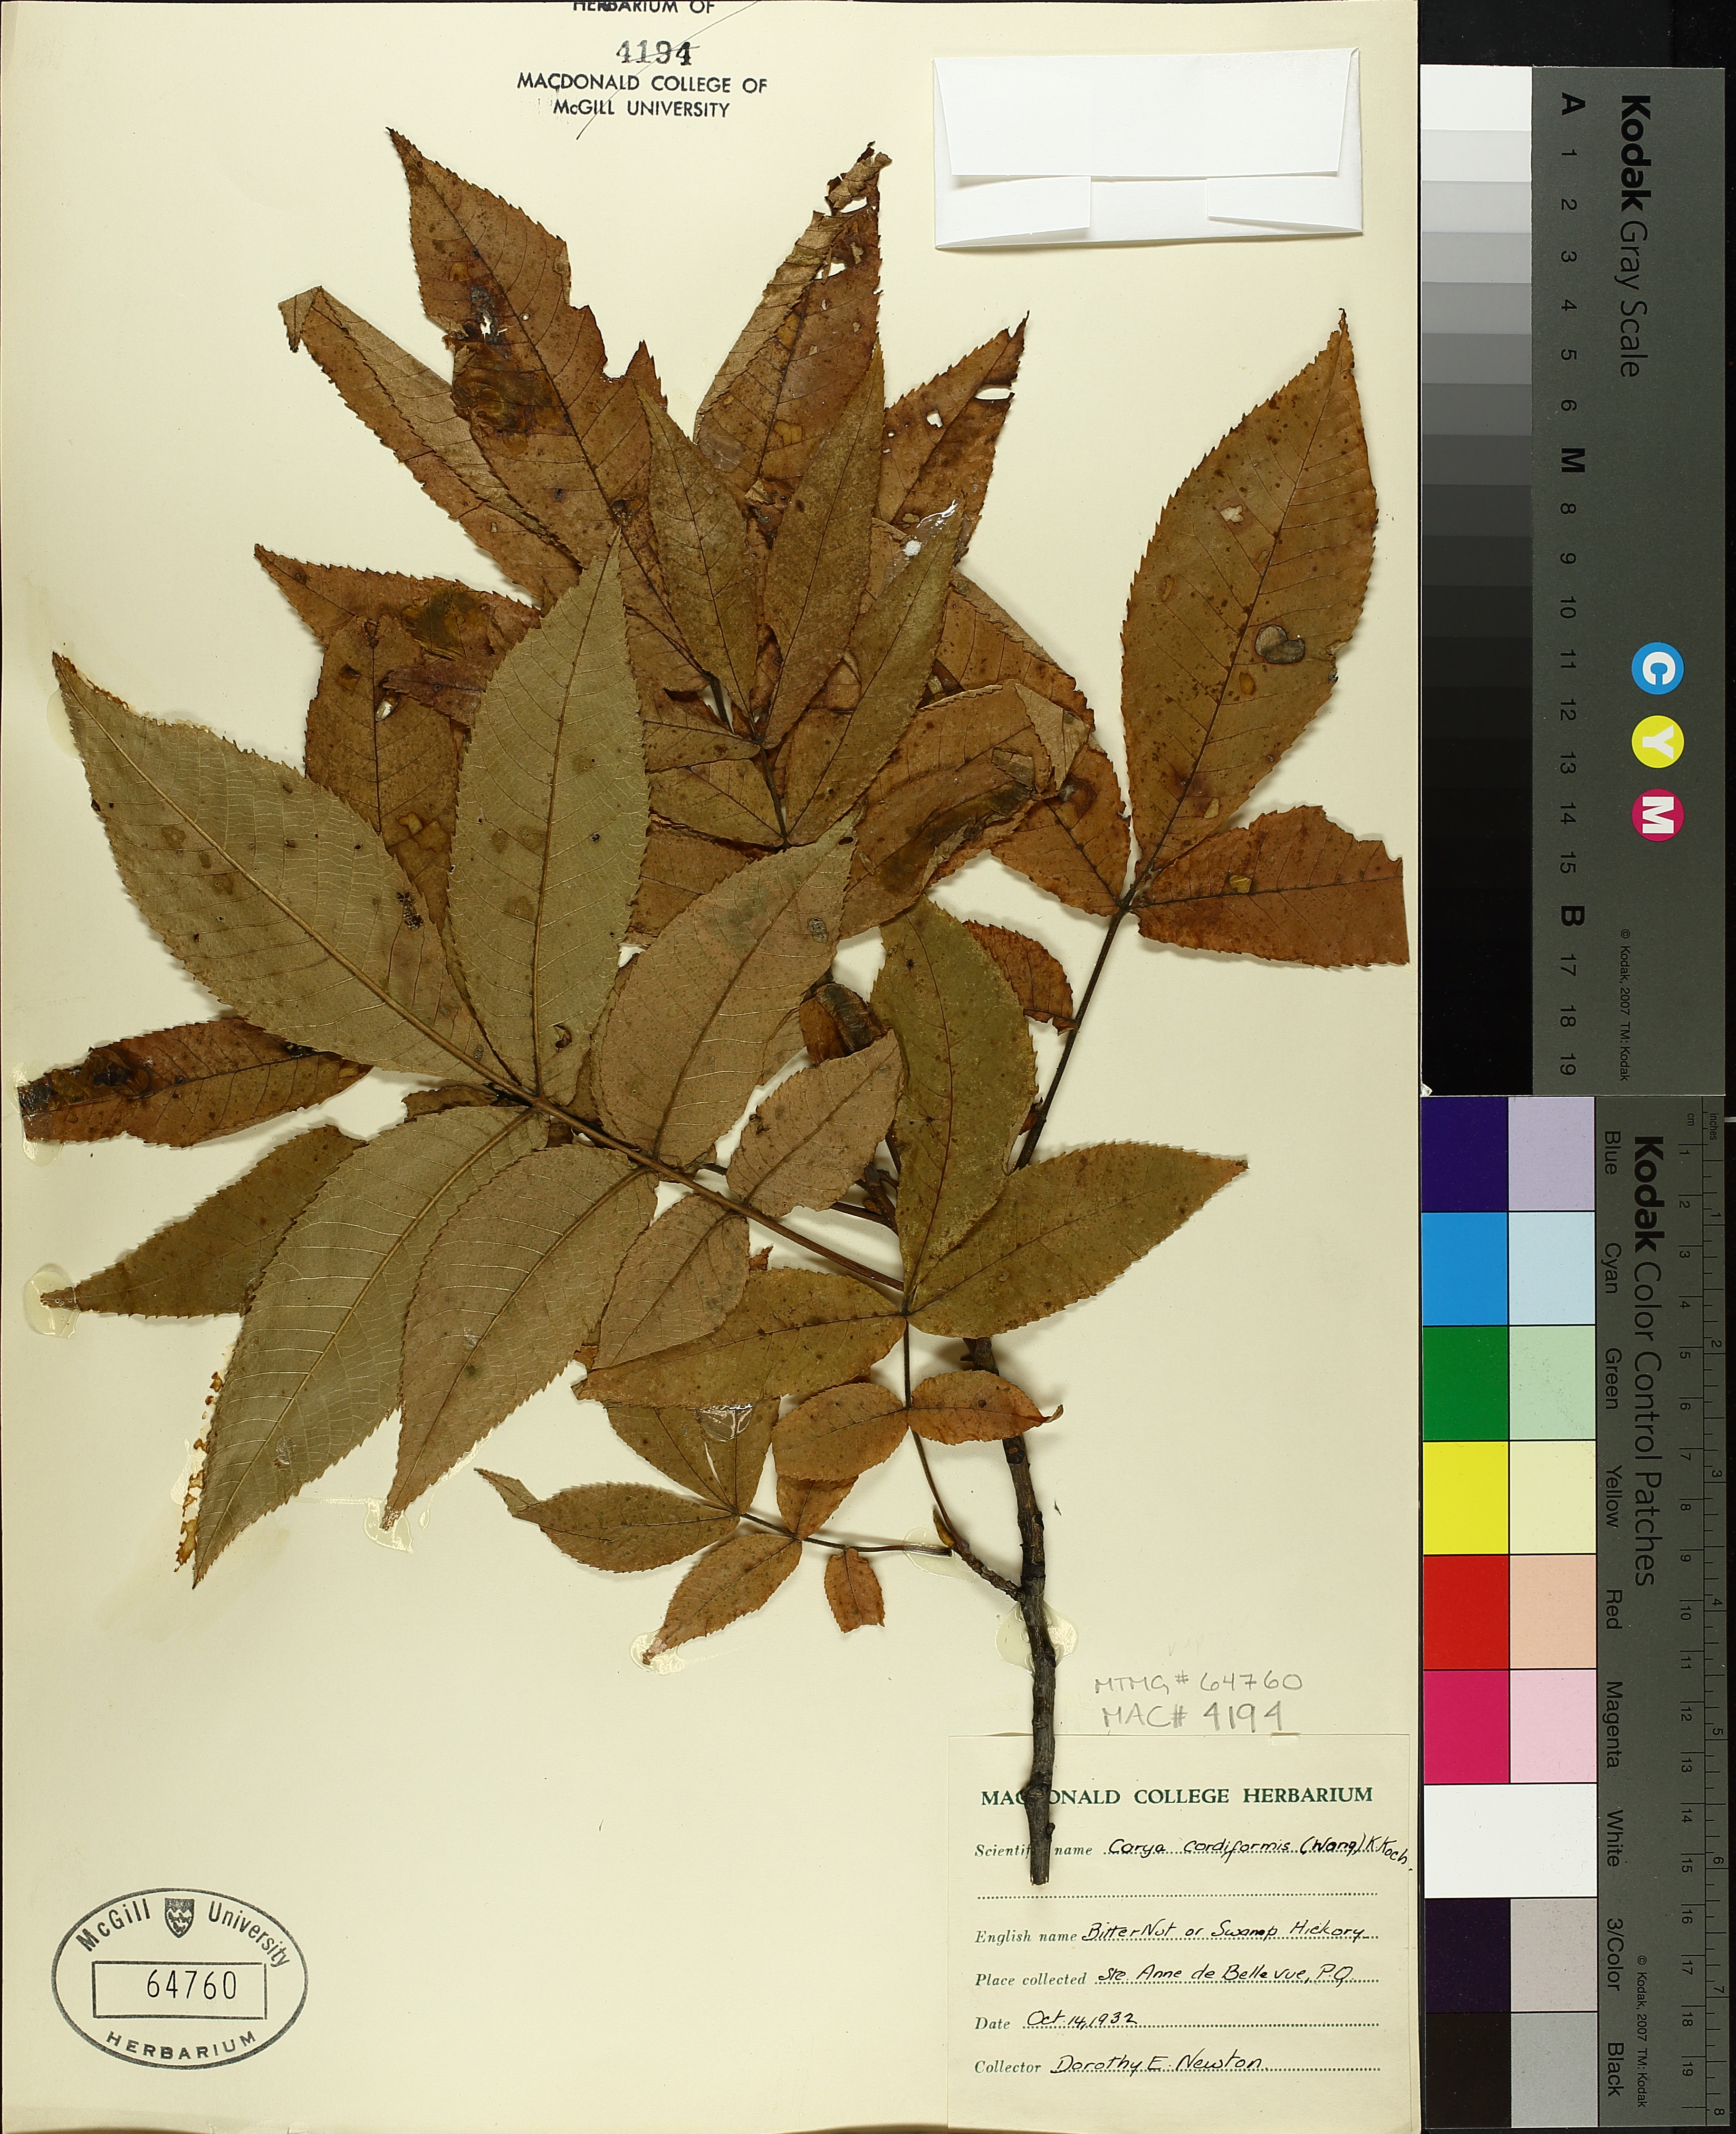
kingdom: Plantae
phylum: Tracheophyta
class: Magnoliopsida
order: Fagales
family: Juglandaceae
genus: Carya
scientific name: Carya cordiformis
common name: Bitternut hickory
